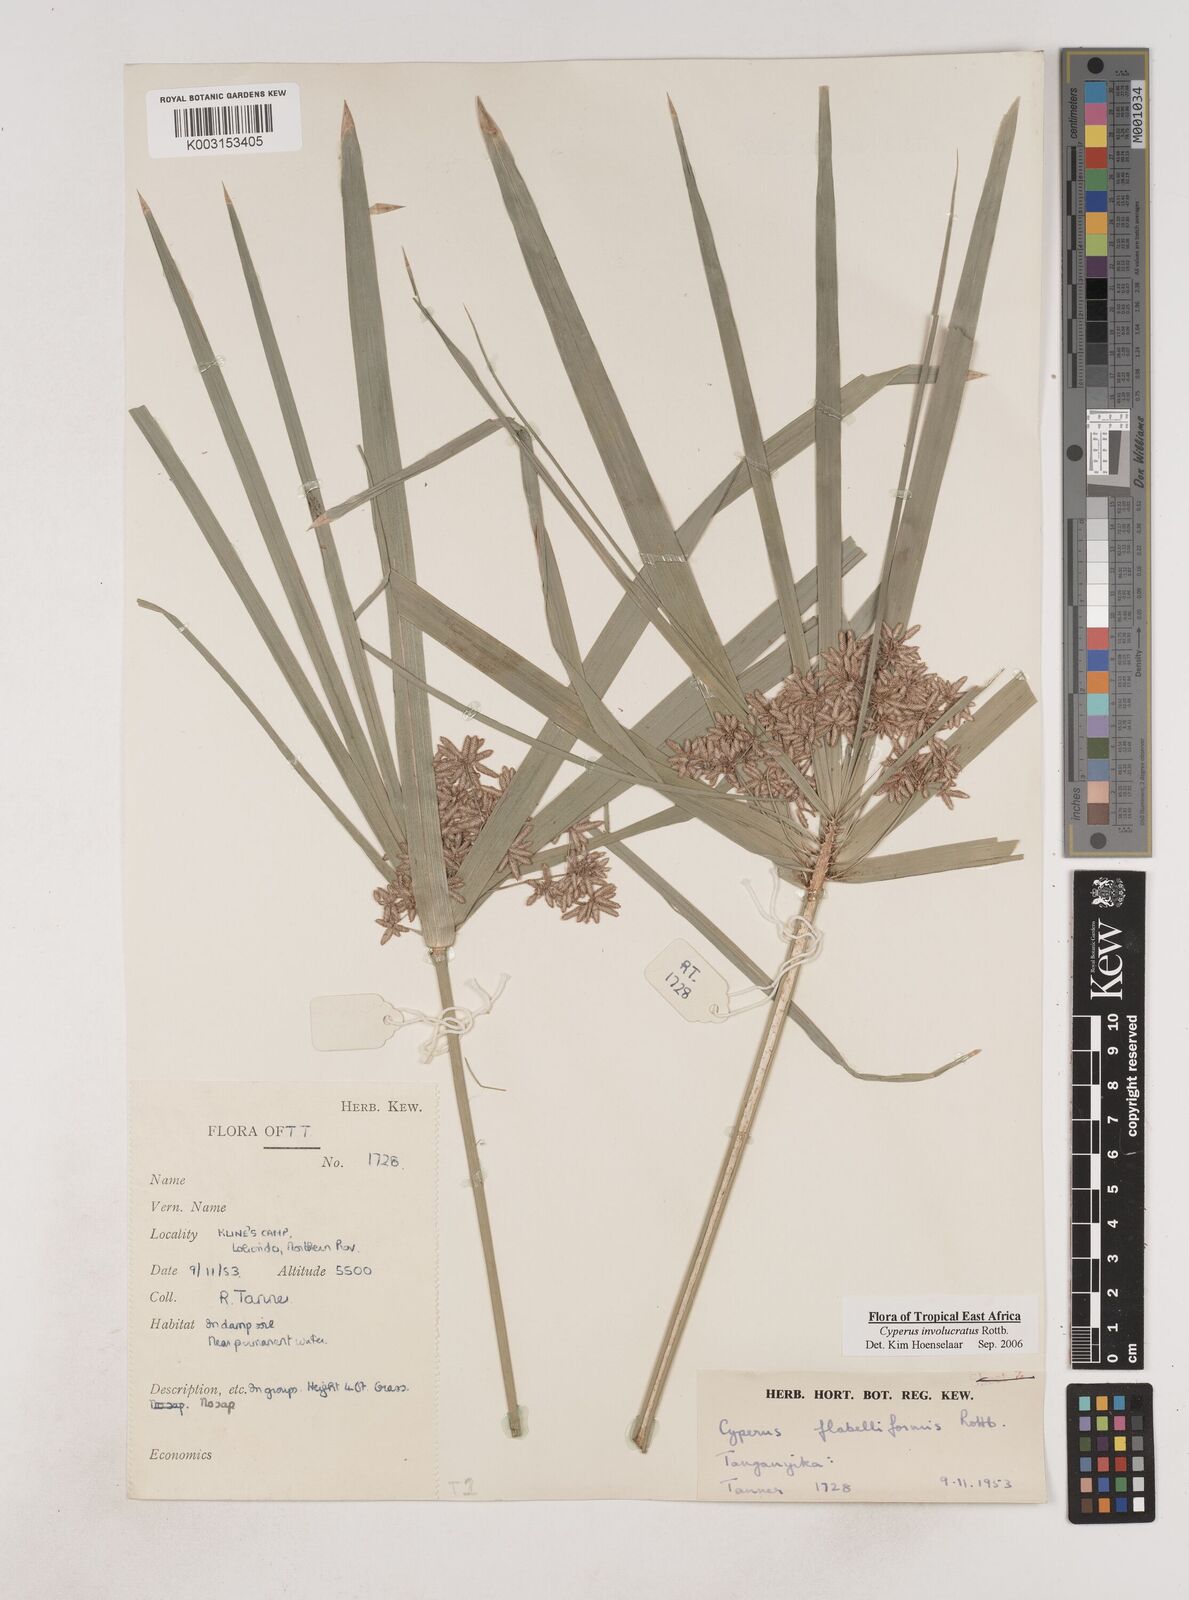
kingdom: Plantae
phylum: Tracheophyta
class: Liliopsida
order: Poales
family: Cyperaceae
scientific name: Cyperaceae
